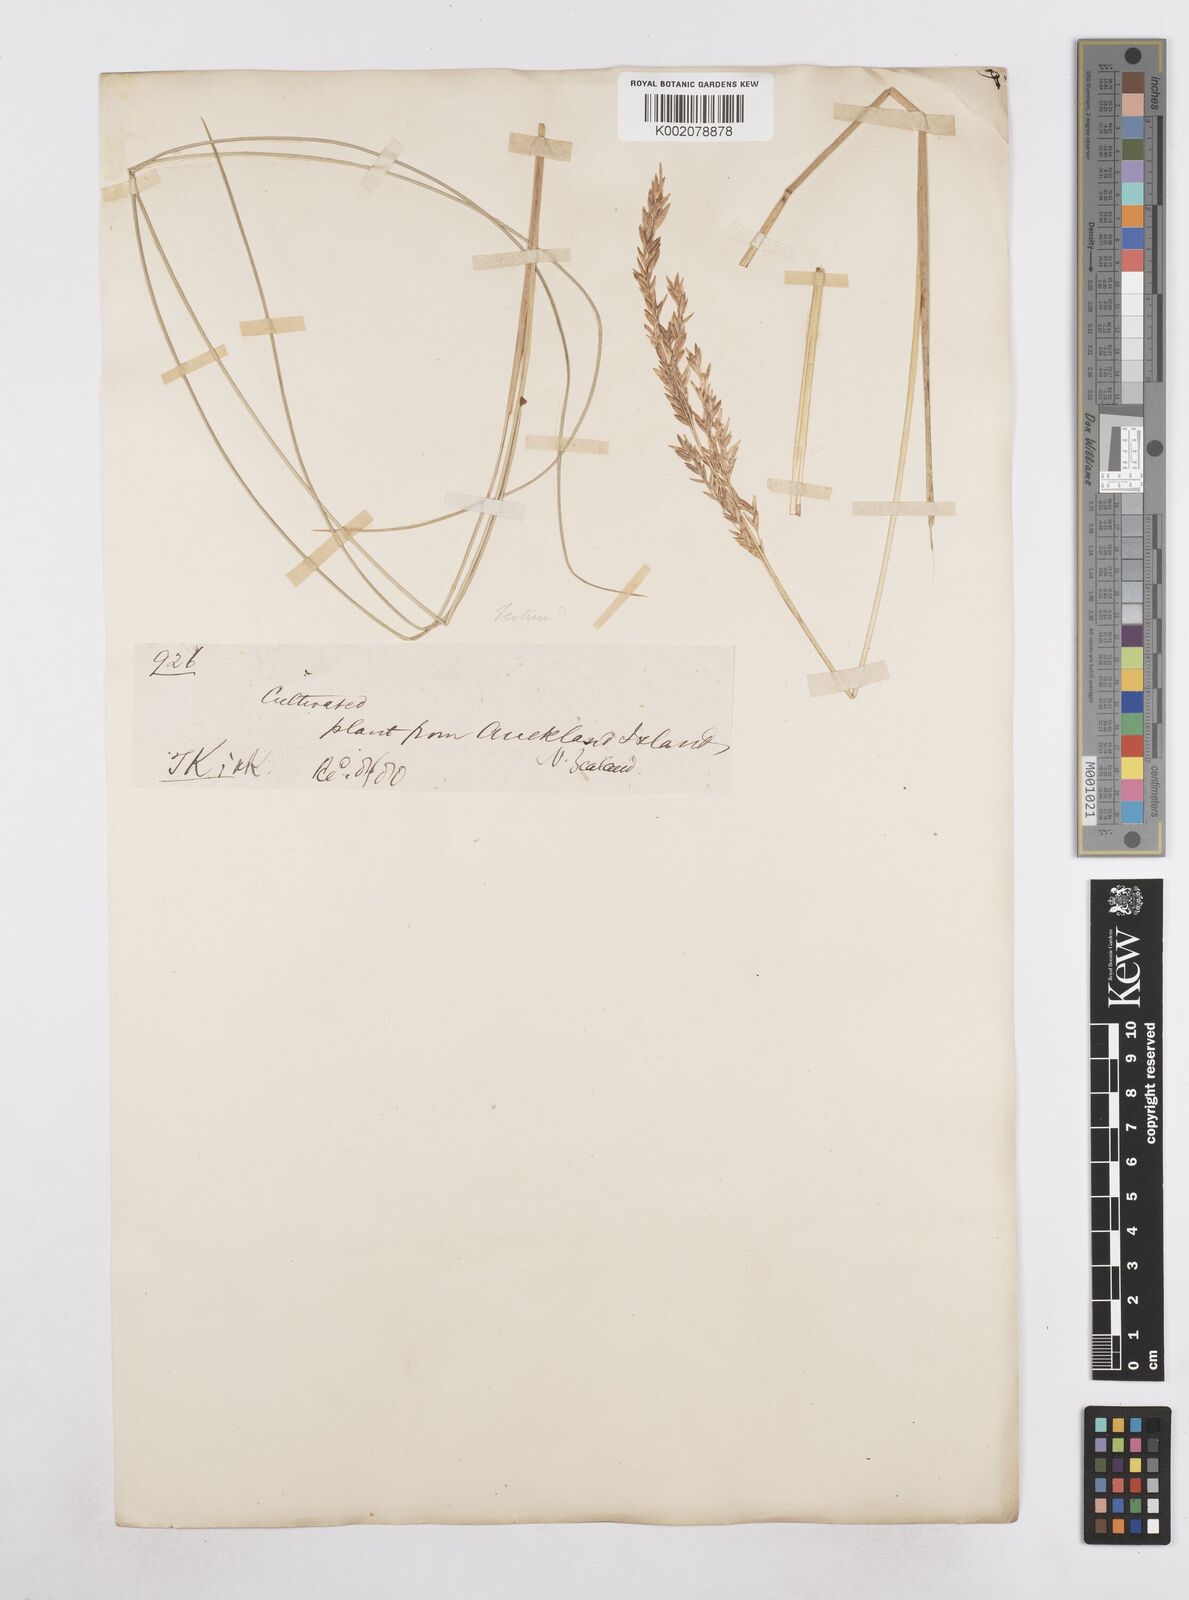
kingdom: Plantae
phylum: Tracheophyta
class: Liliopsida
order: Poales
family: Poaceae
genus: Poa
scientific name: Poa litorosa
